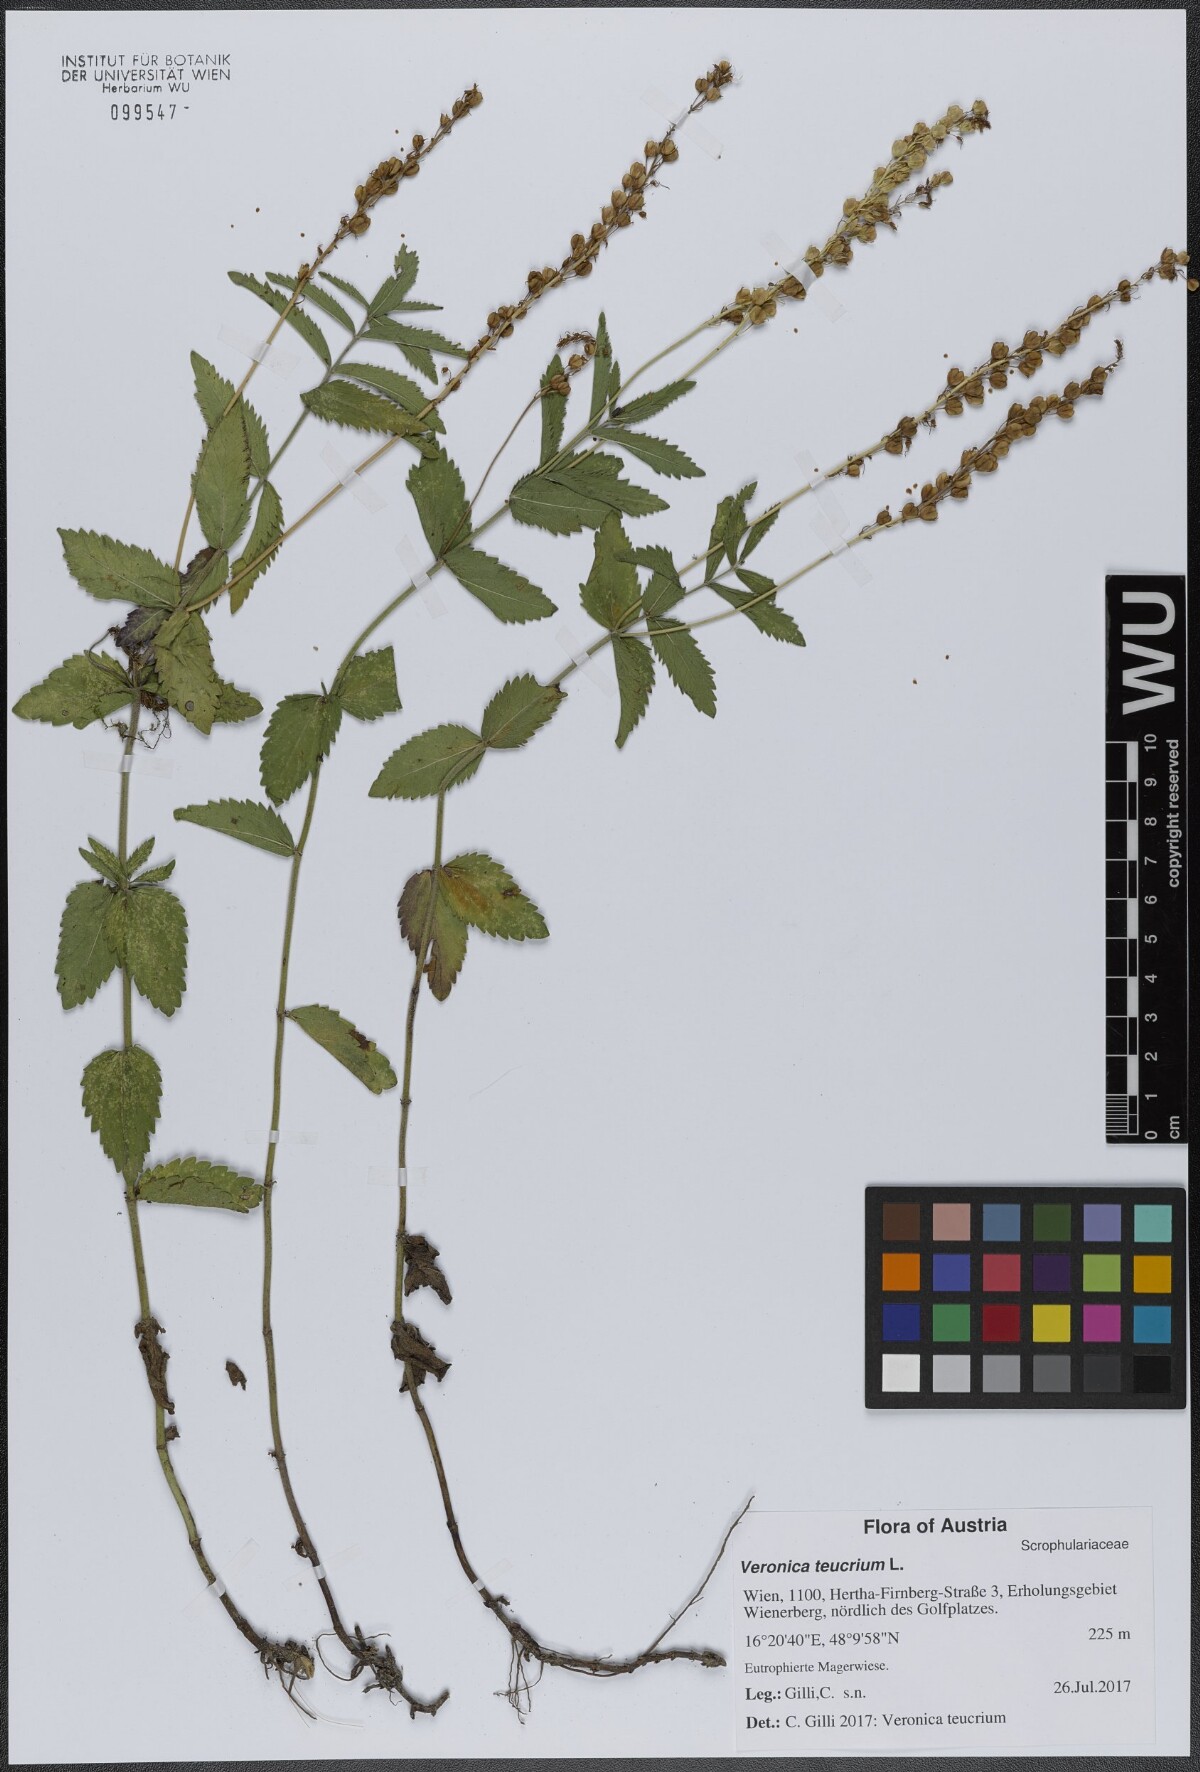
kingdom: Plantae
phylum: Tracheophyta
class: Magnoliopsida
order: Lamiales
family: Plantaginaceae
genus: Veronica
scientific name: Veronica teucrium
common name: Large speedwell
